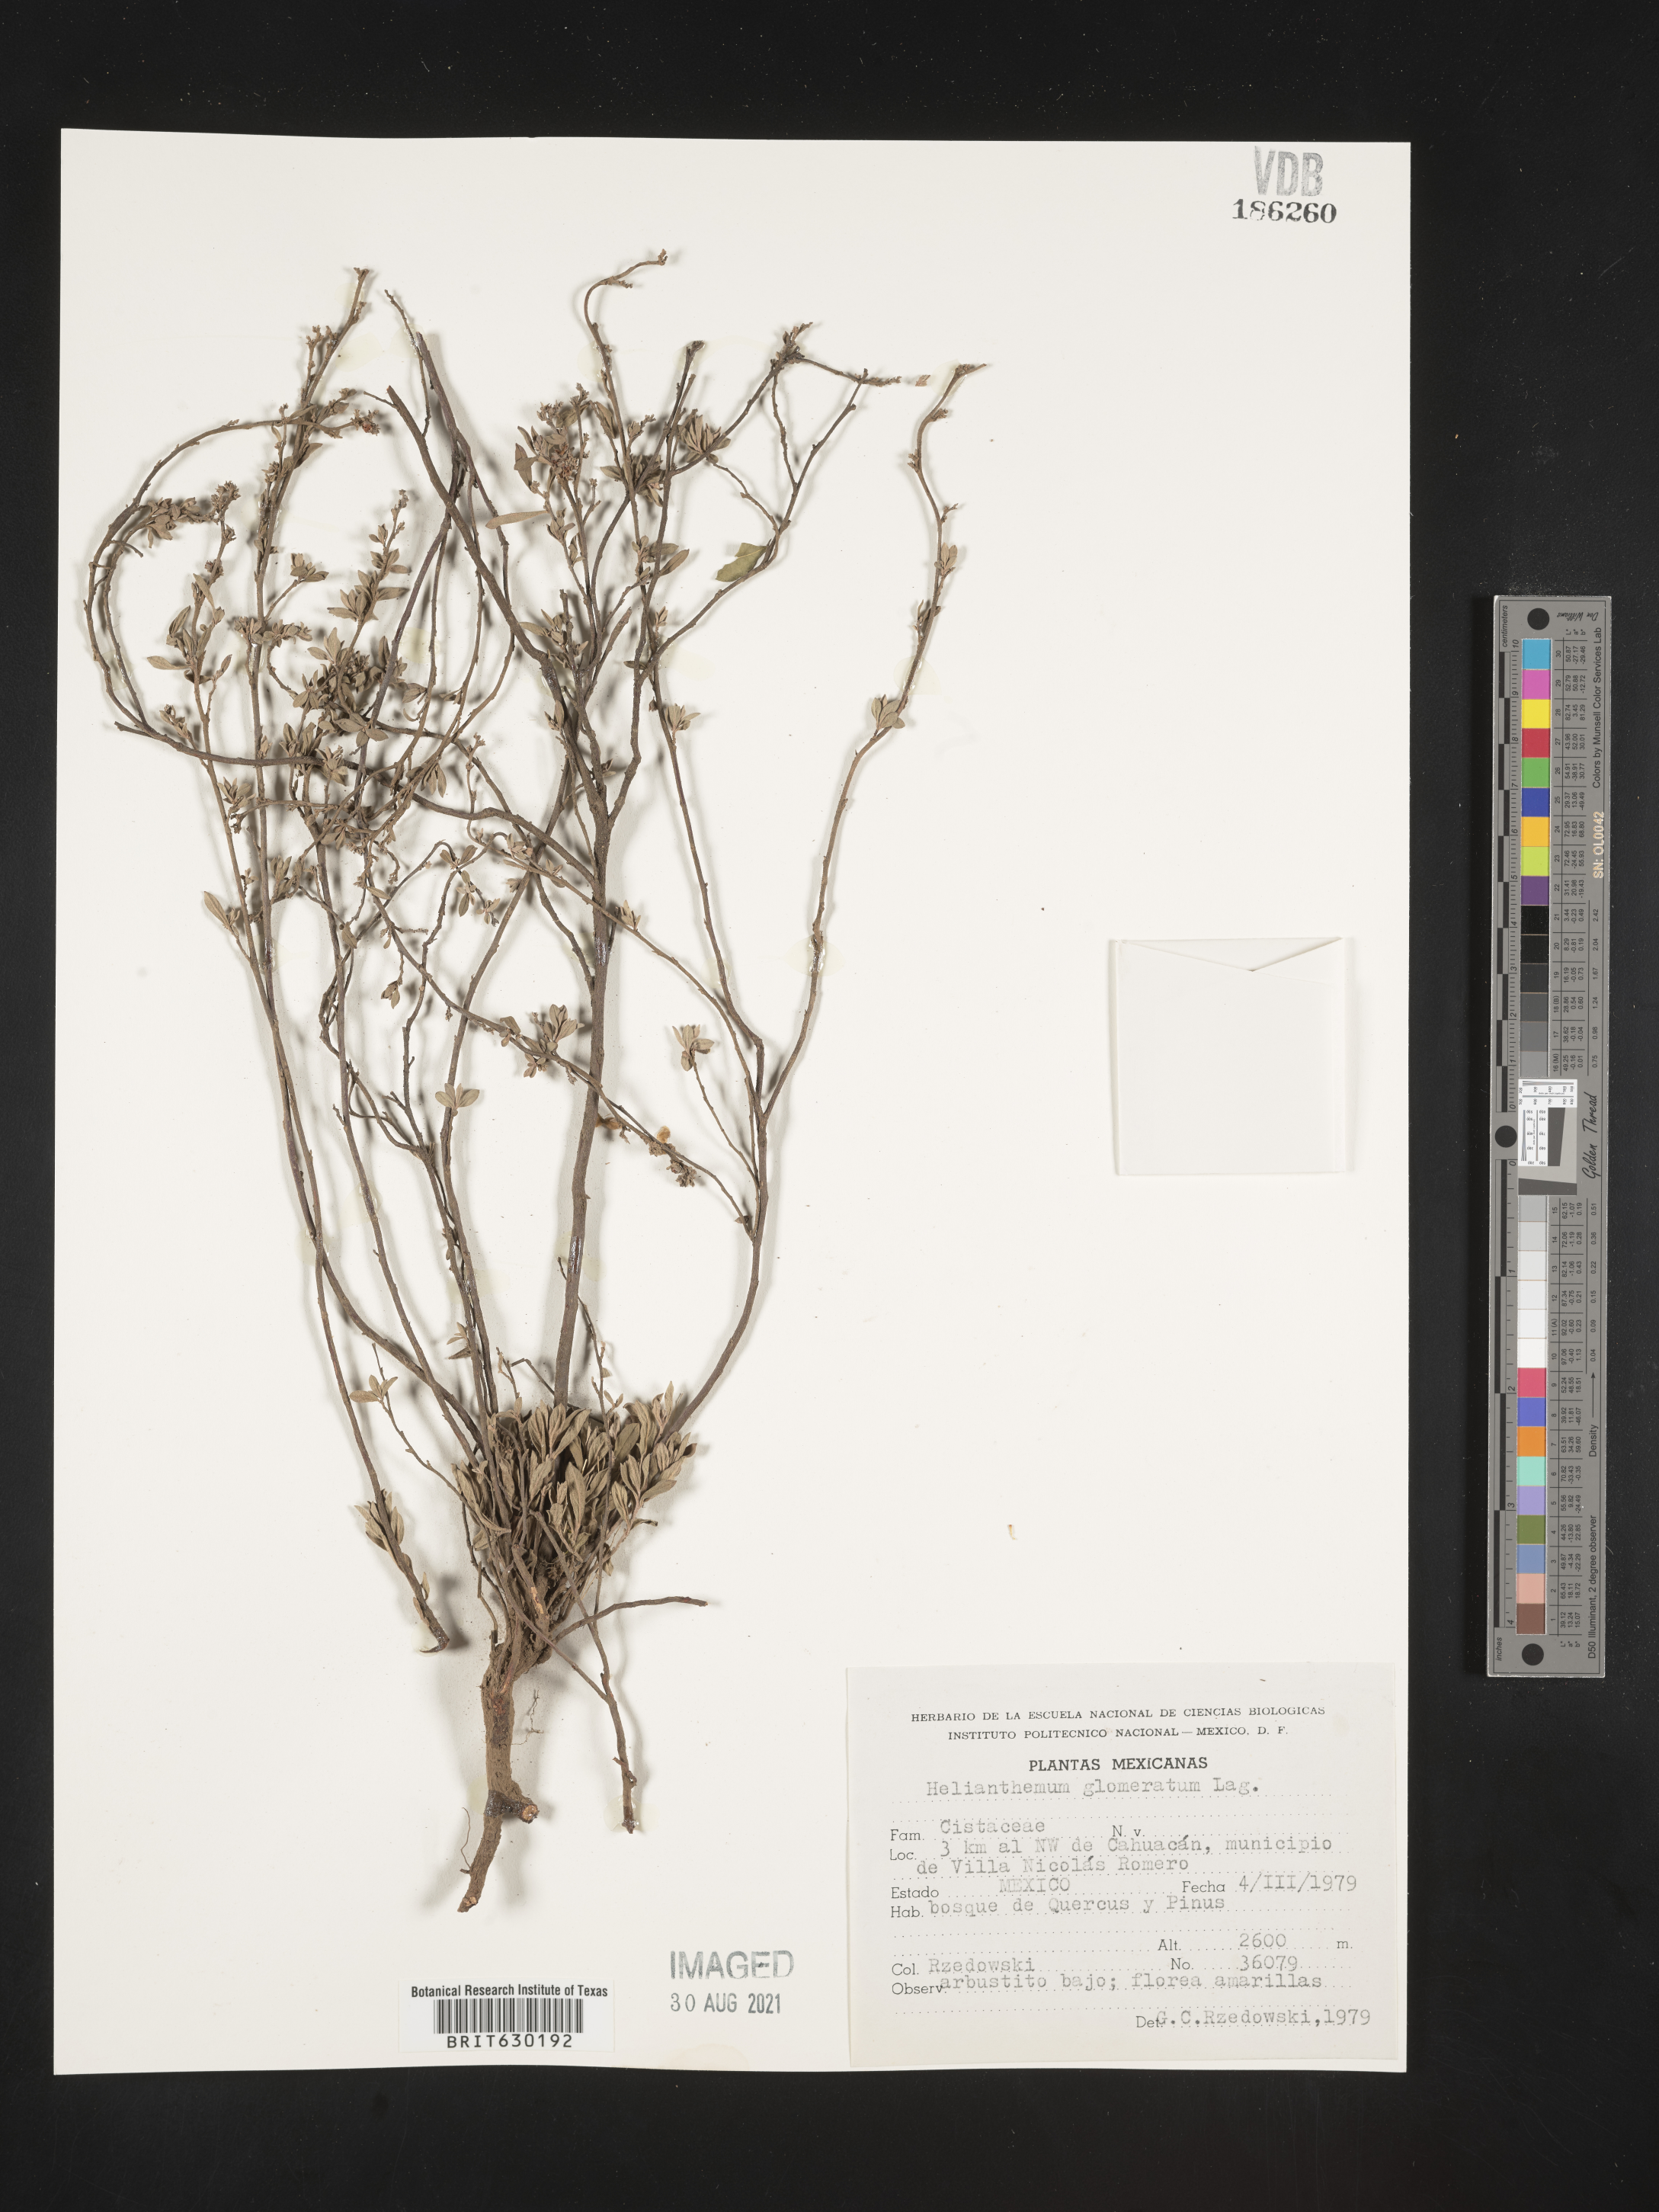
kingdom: Plantae
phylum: Tracheophyta
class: Magnoliopsida
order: Malvales
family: Cistaceae
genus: Helianthemum
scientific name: Helianthemum
